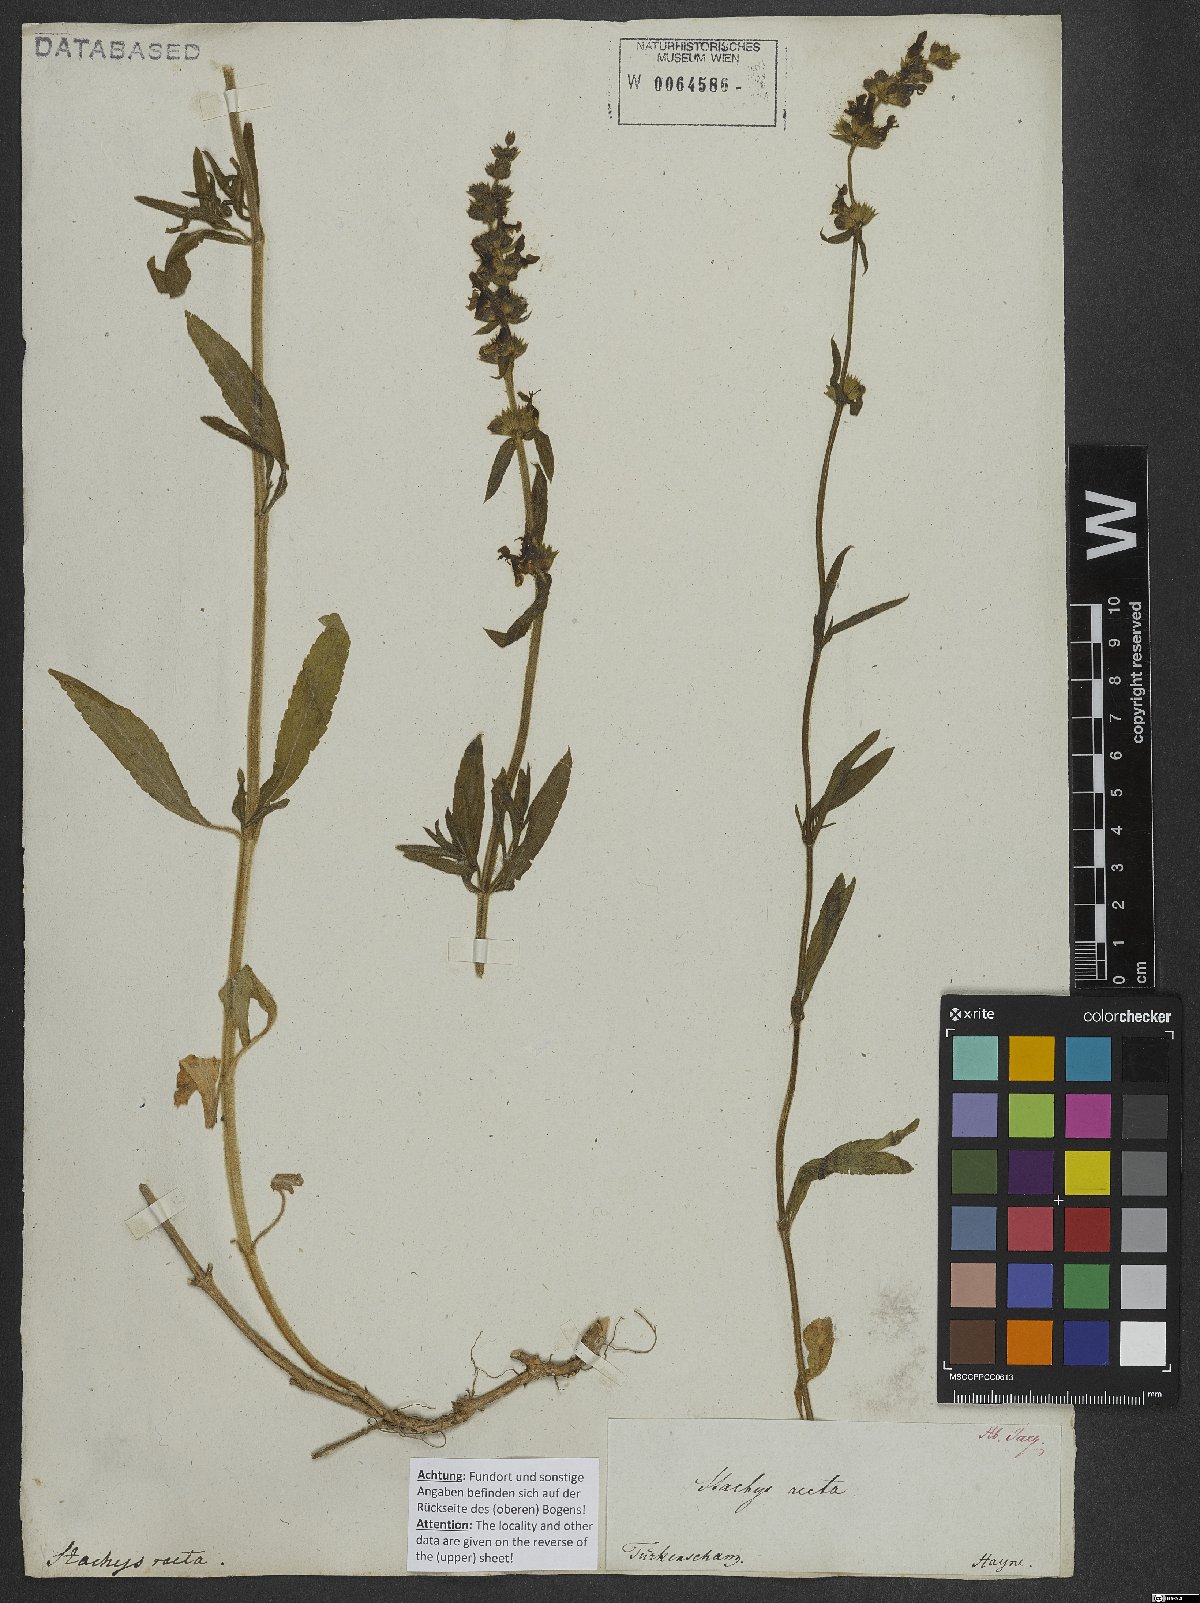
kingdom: Plantae
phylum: Tracheophyta
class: Magnoliopsida
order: Lamiales
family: Lamiaceae
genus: Stachys
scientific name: Stachys recta
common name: Perennial yellow-woundwort
